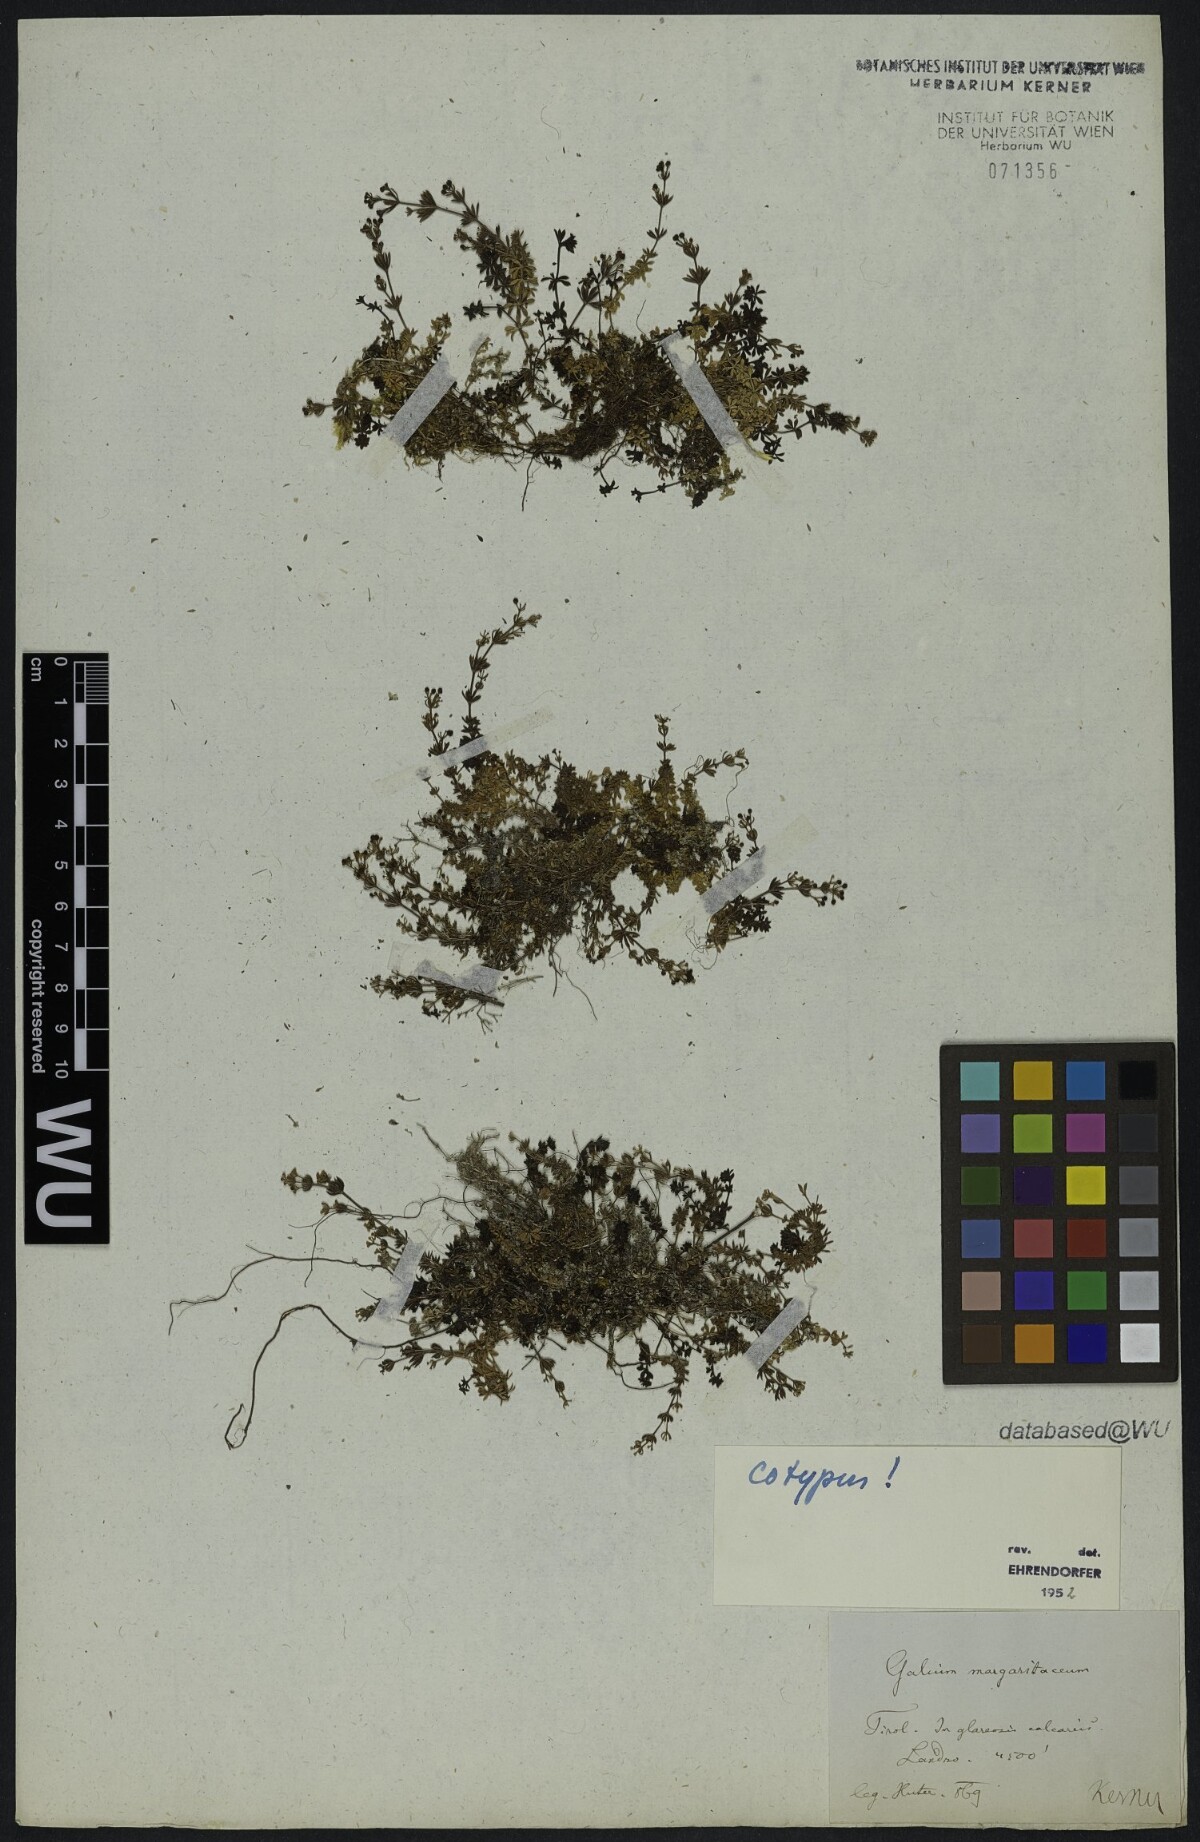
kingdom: Plantae
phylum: Tracheophyta
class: Magnoliopsida
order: Gentianales
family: Rubiaceae
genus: Galium
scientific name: Galium margaritaceum
